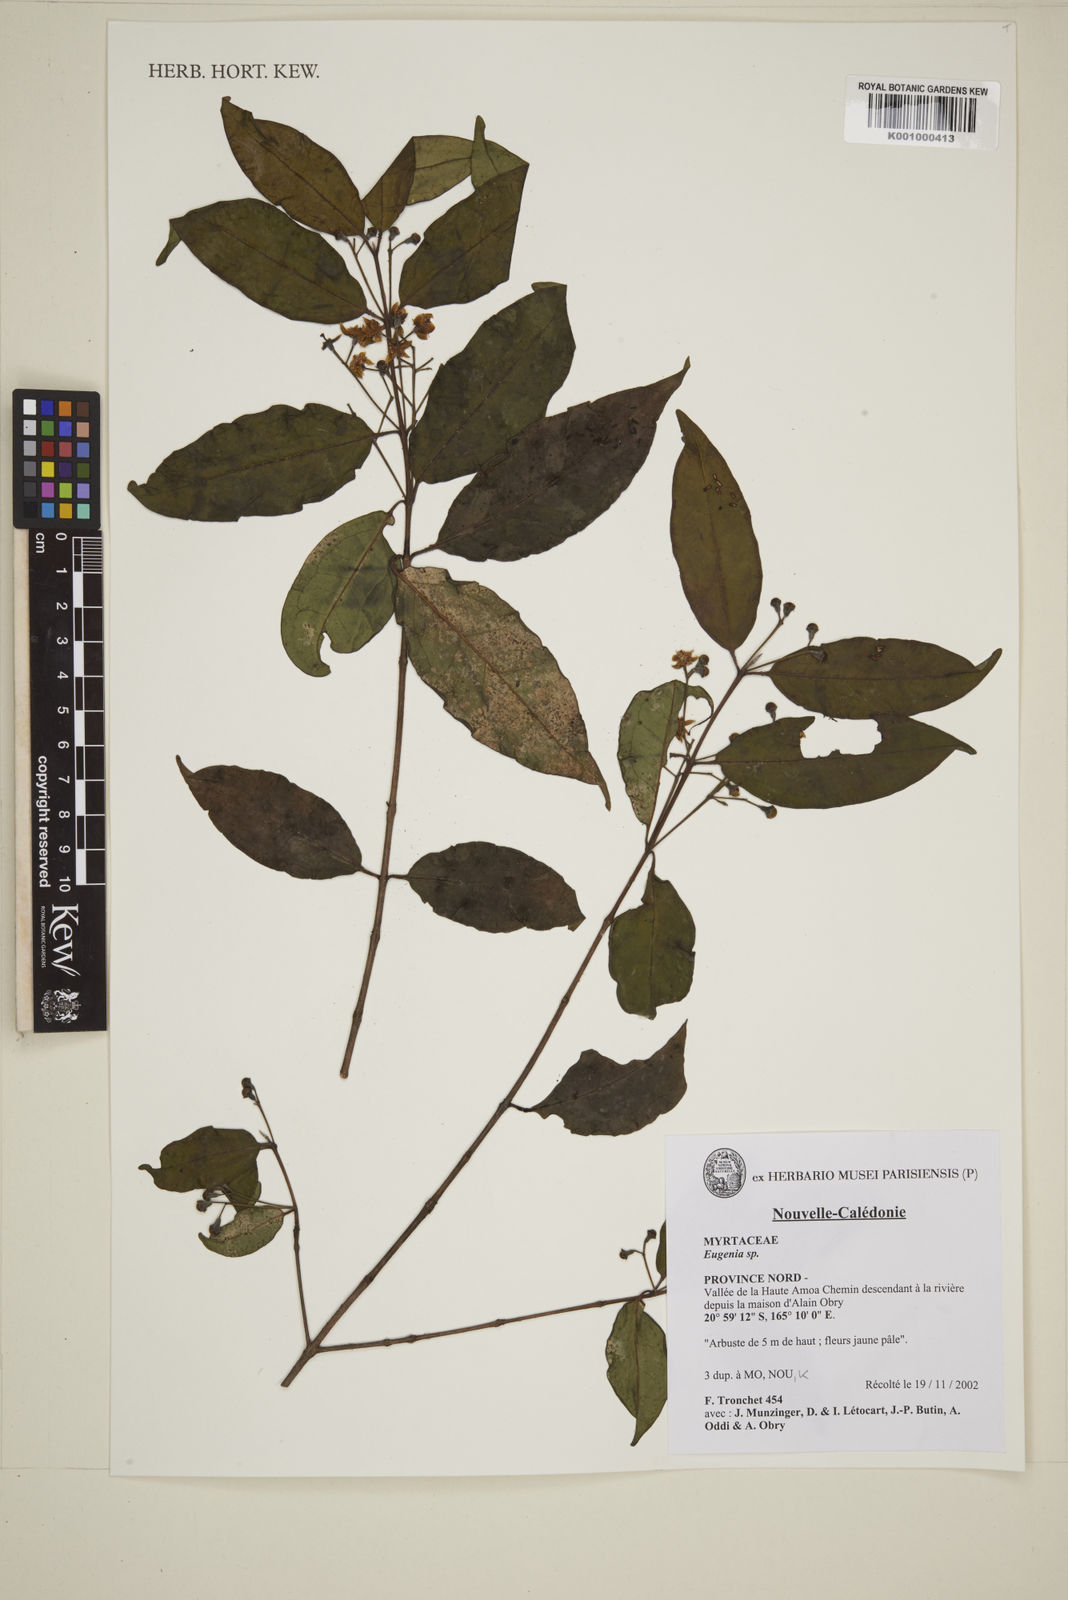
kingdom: Plantae
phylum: Tracheophyta
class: Magnoliopsida
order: Myrtales
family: Myrtaceae
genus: Eugenia
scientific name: Eugenia
